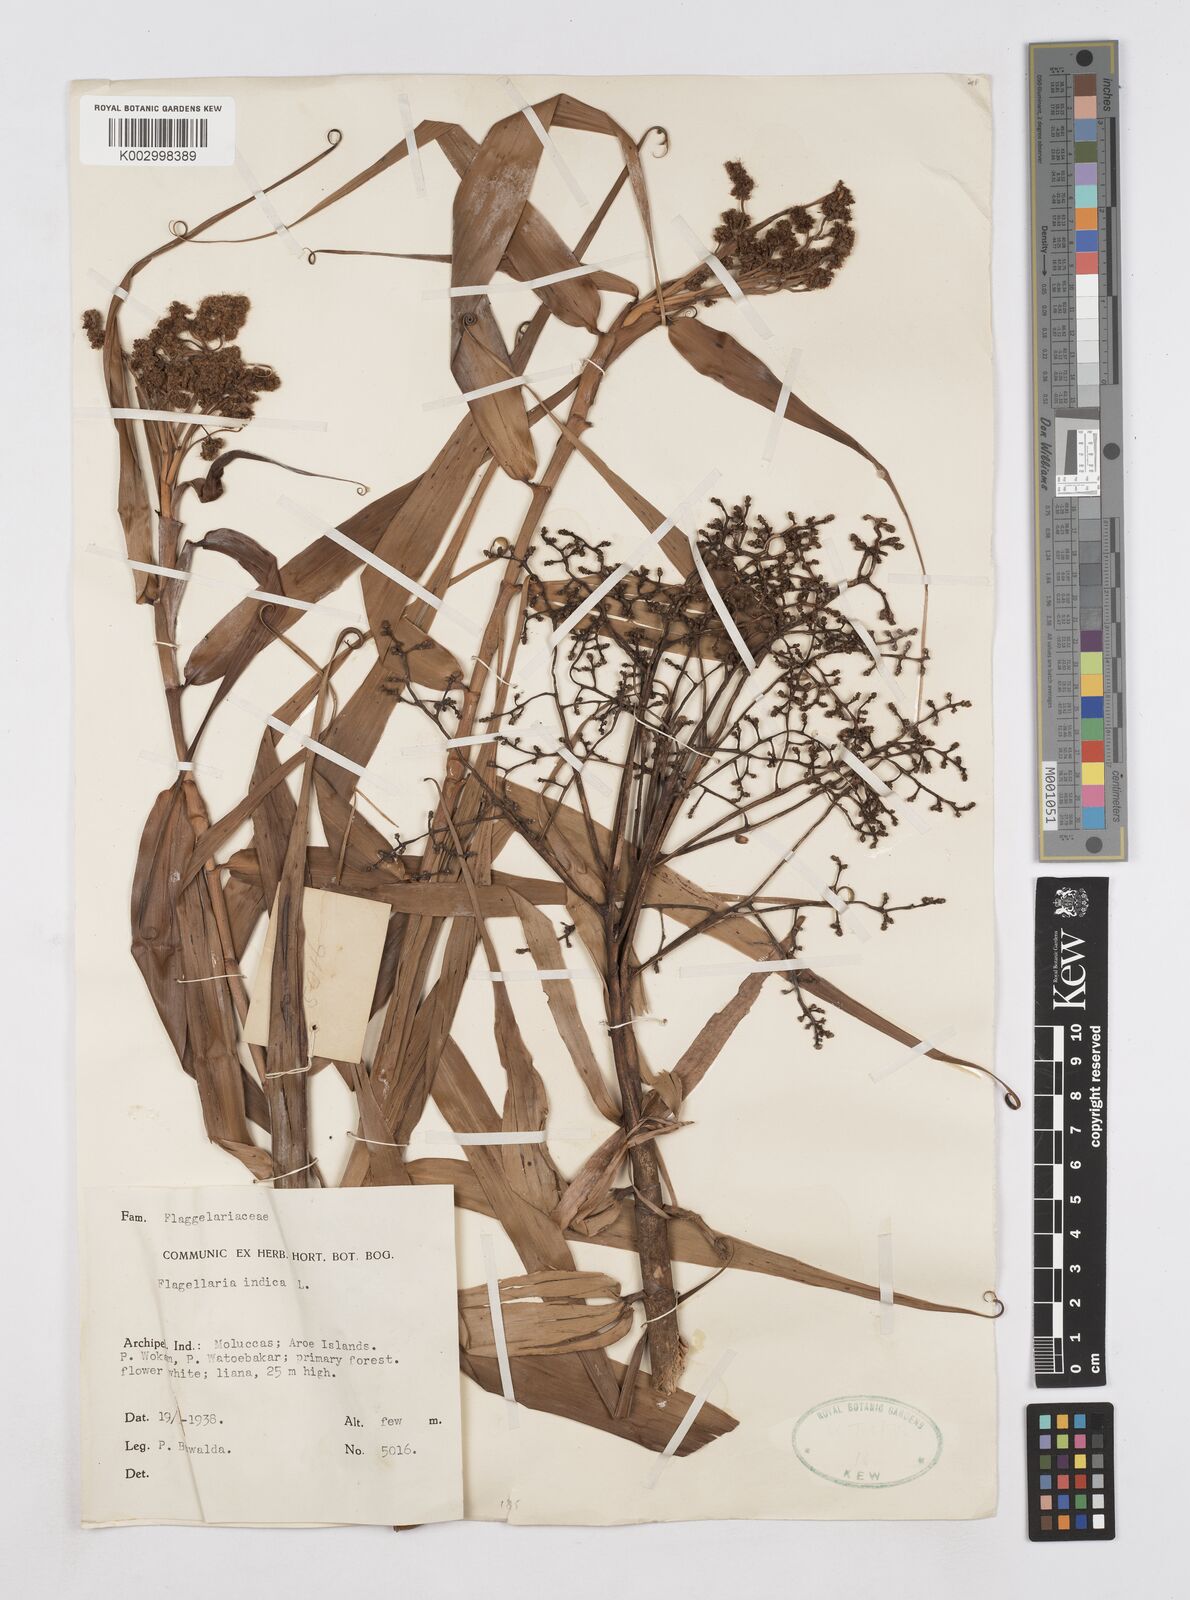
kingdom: Plantae
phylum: Tracheophyta
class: Liliopsida
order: Poales
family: Flagellariaceae
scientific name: Flagellariaceae
